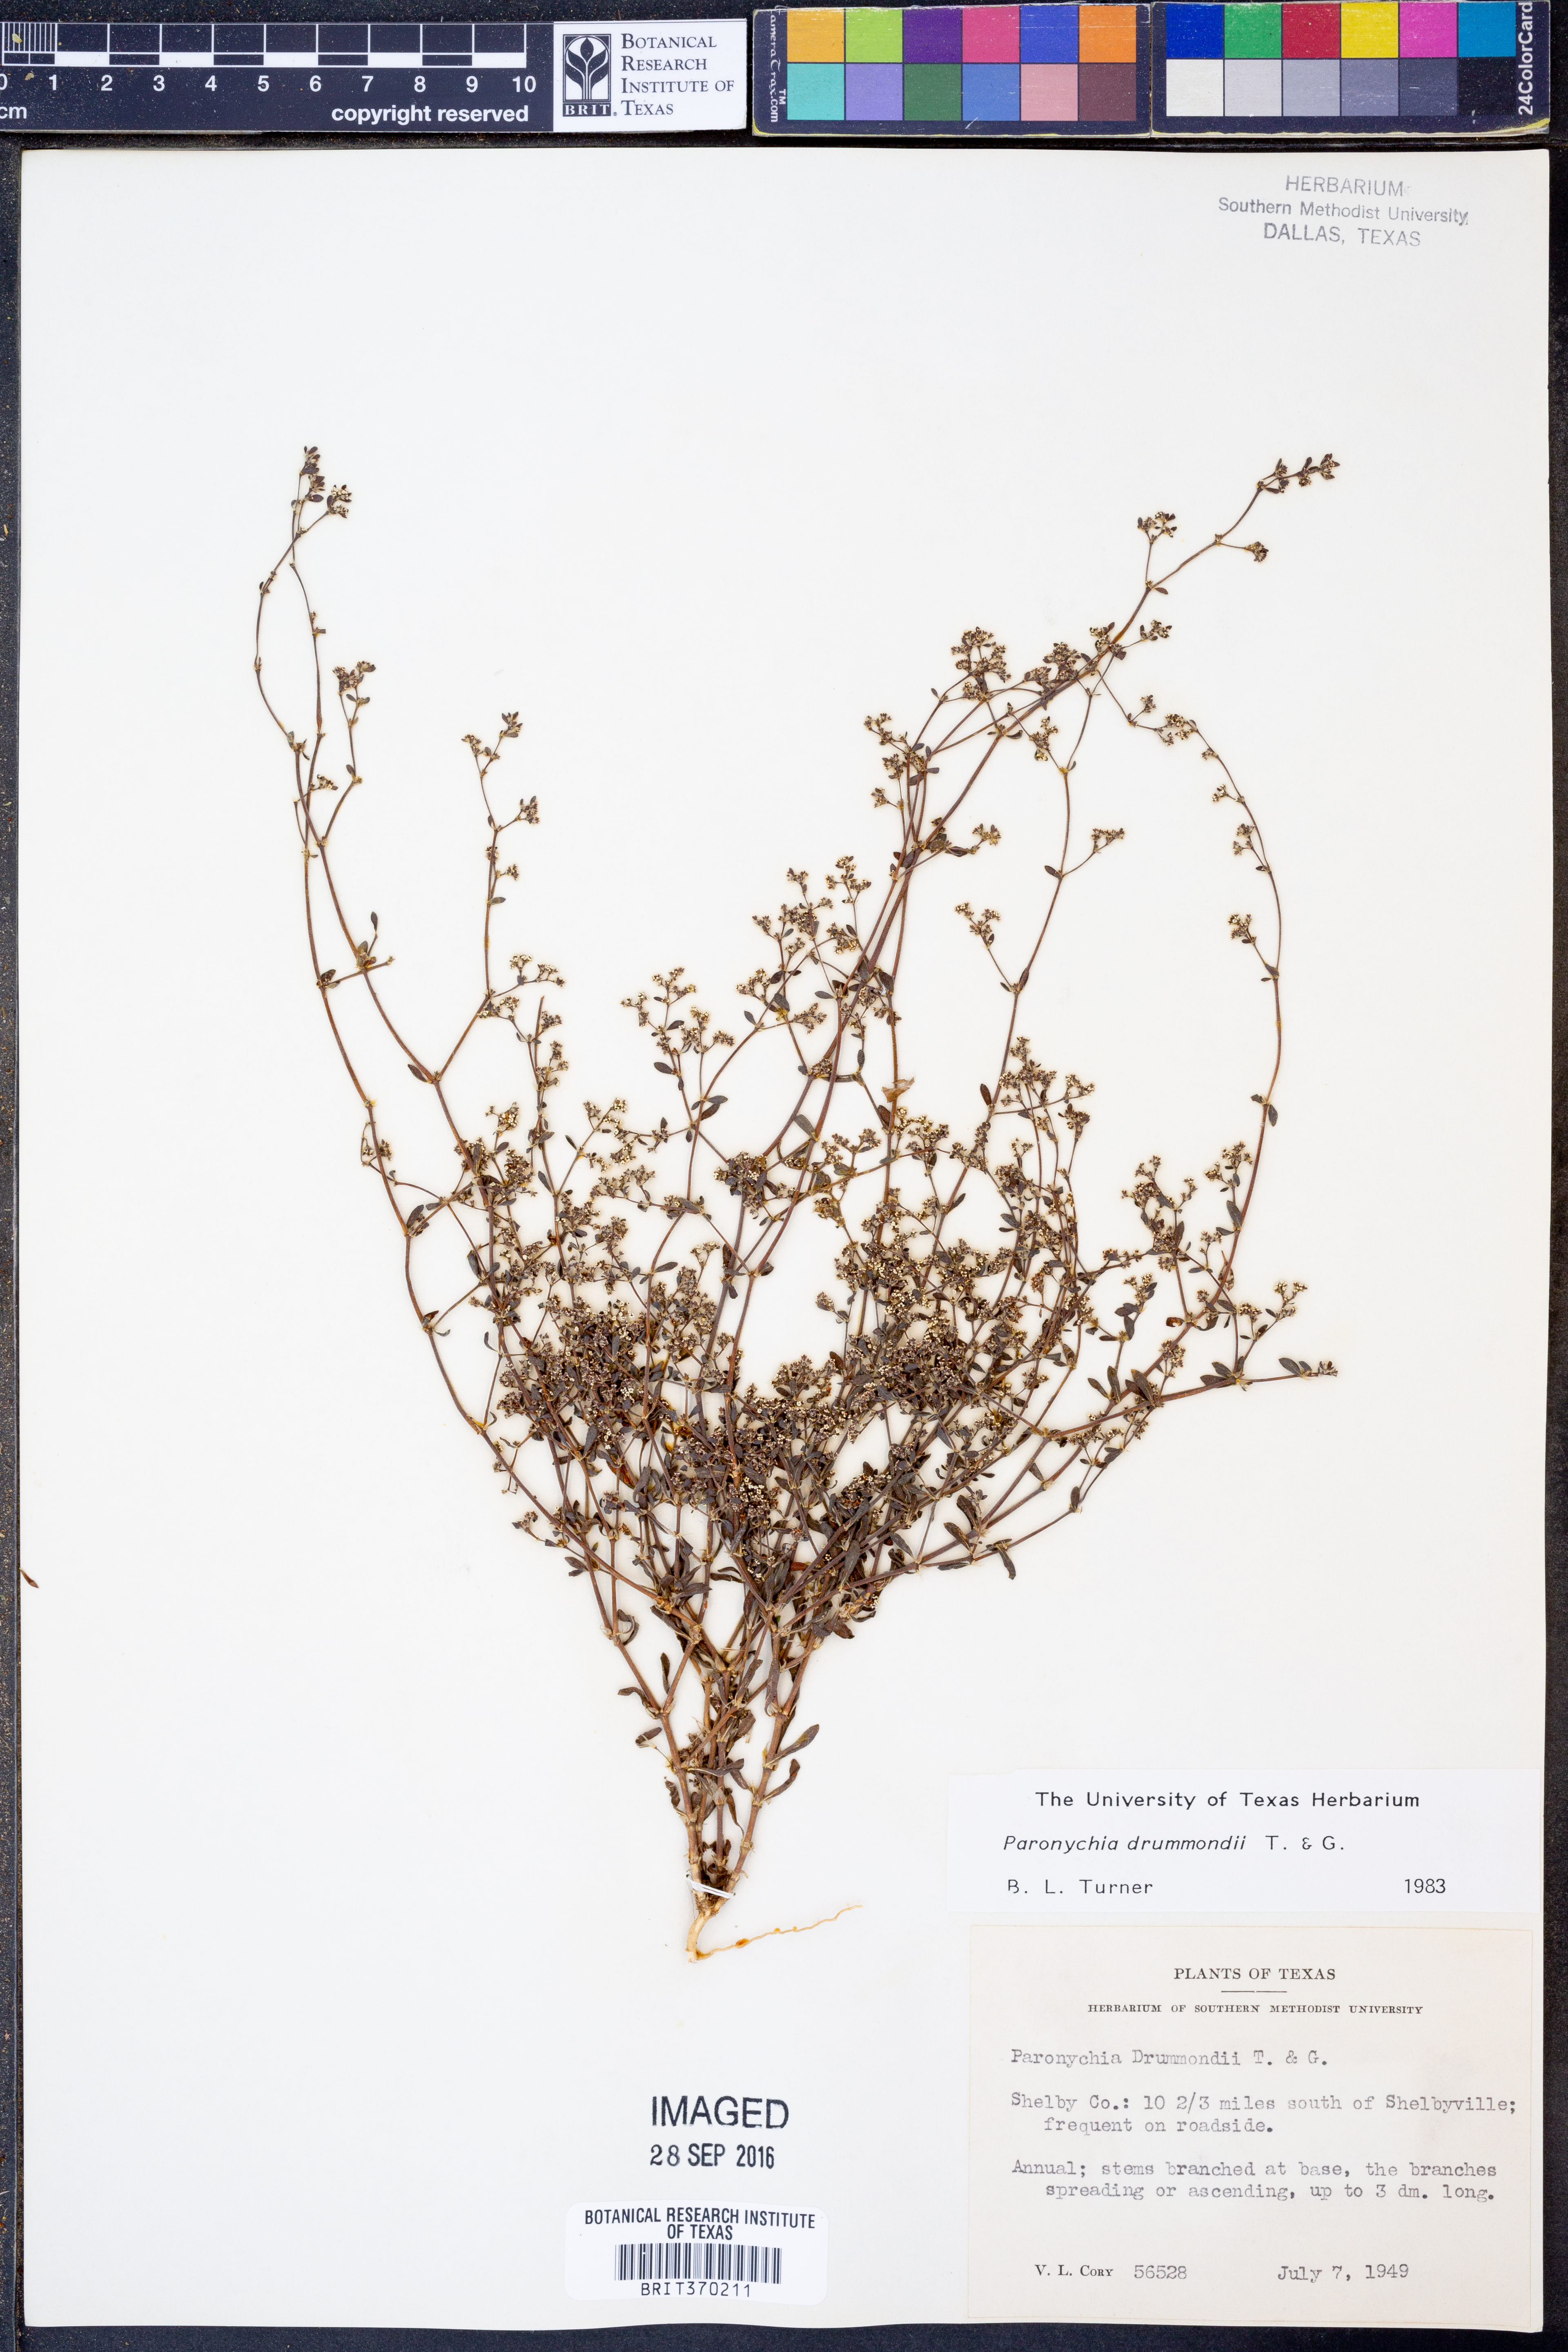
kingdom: Plantae
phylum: Tracheophyta
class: Magnoliopsida
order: Caryophyllales
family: Caryophyllaceae
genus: Paronychia
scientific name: Paronychia drummondii
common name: Drummond's nailwort
